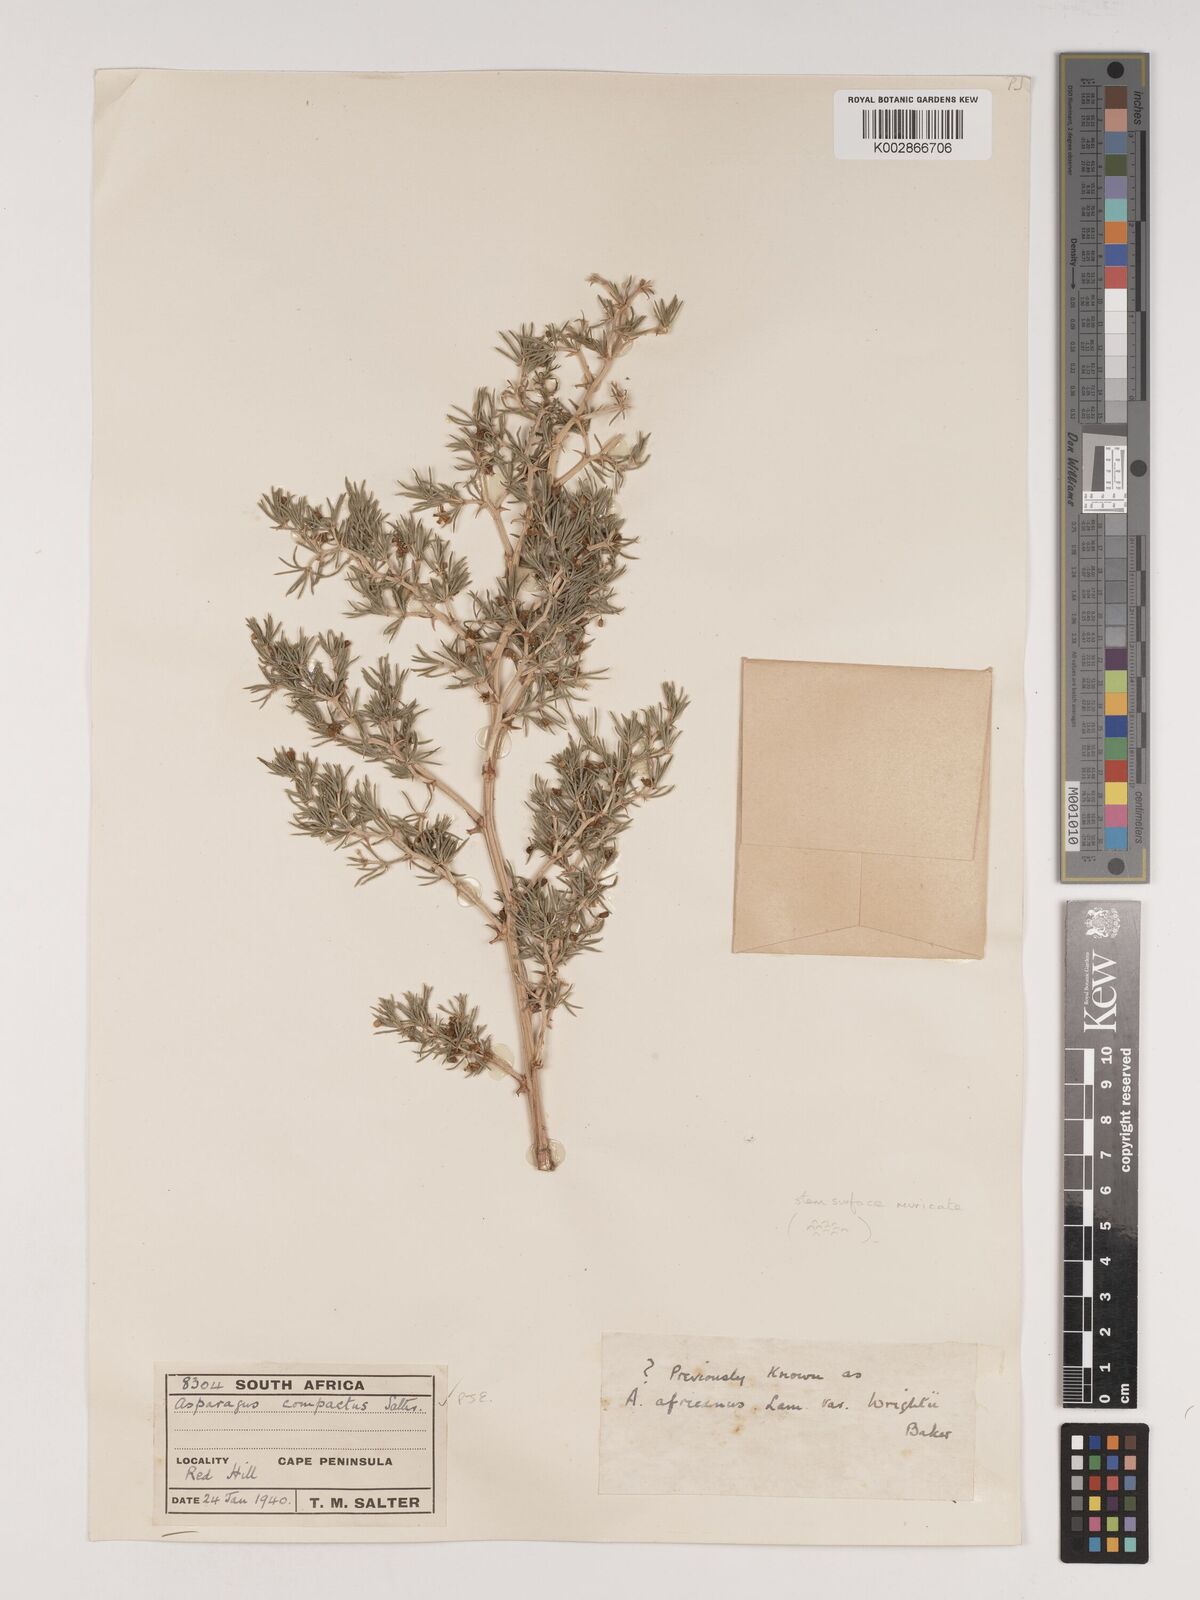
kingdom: Plantae
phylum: Tracheophyta
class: Liliopsida
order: Asparagales
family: Asparagaceae
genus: Asparagus
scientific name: Asparagus lignosus
